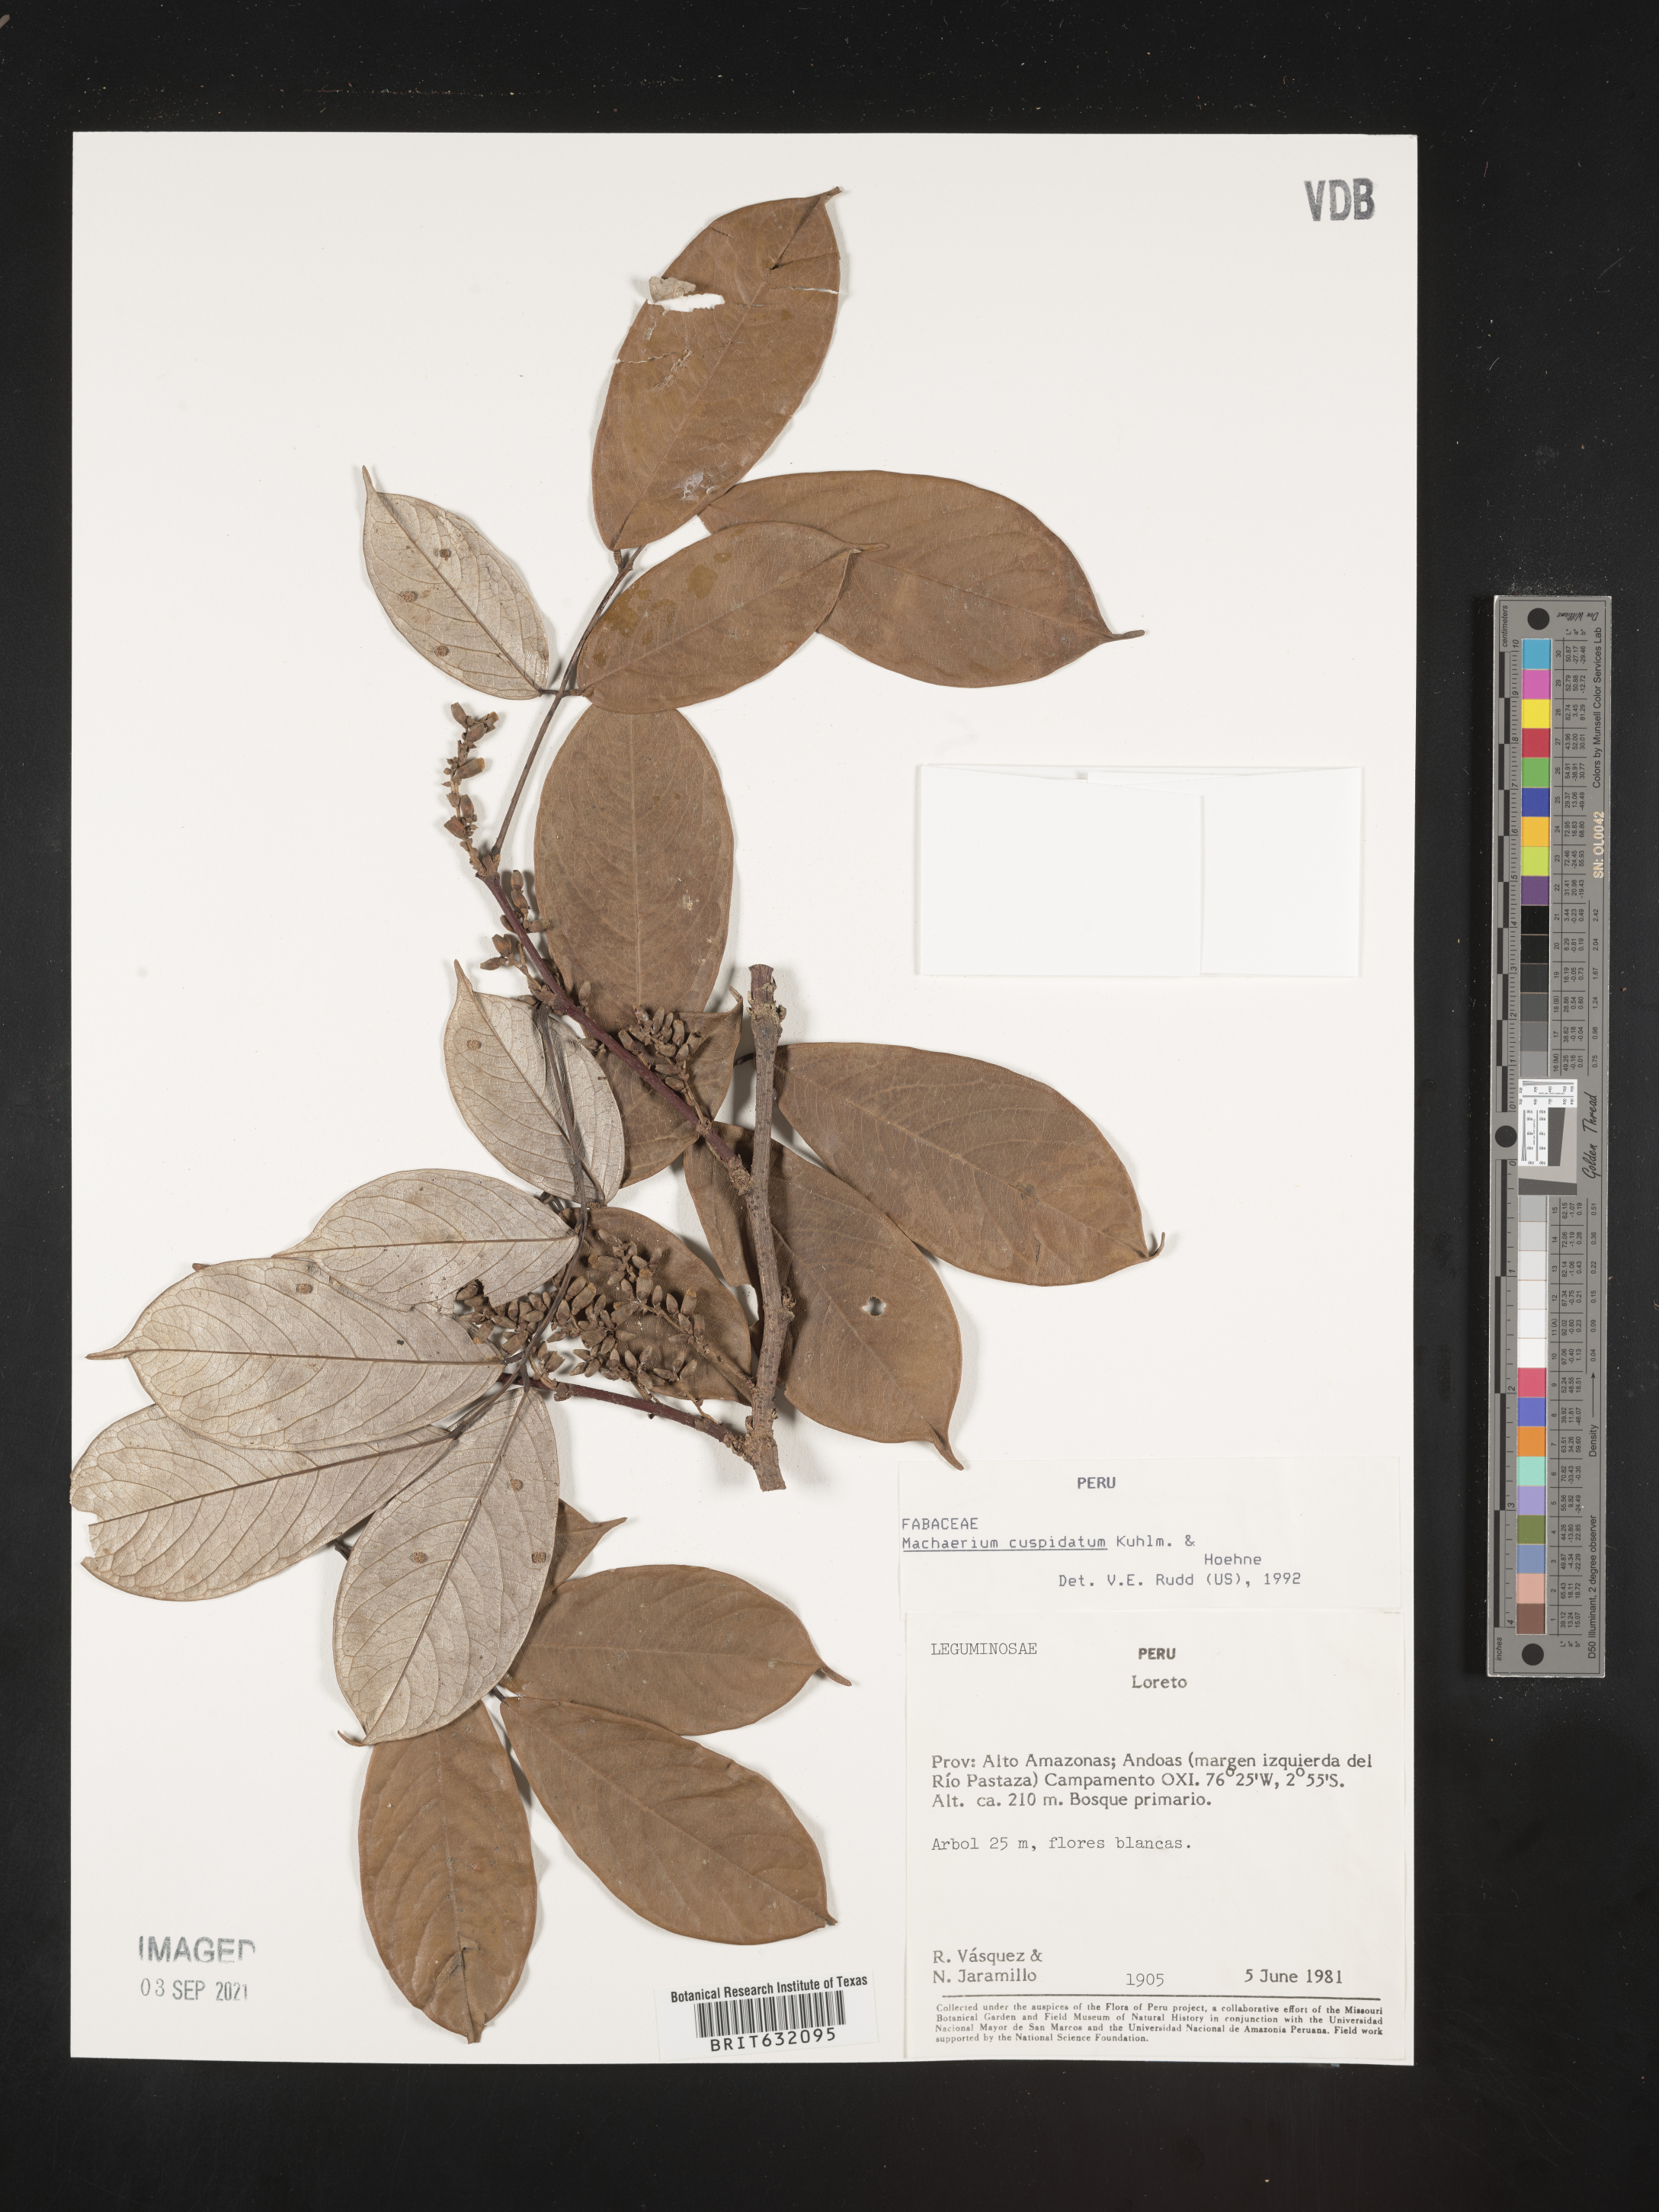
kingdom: Plantae
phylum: Tracheophyta
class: Magnoliopsida
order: Fabales
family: Fabaceae
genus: Machaerium
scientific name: Machaerium
